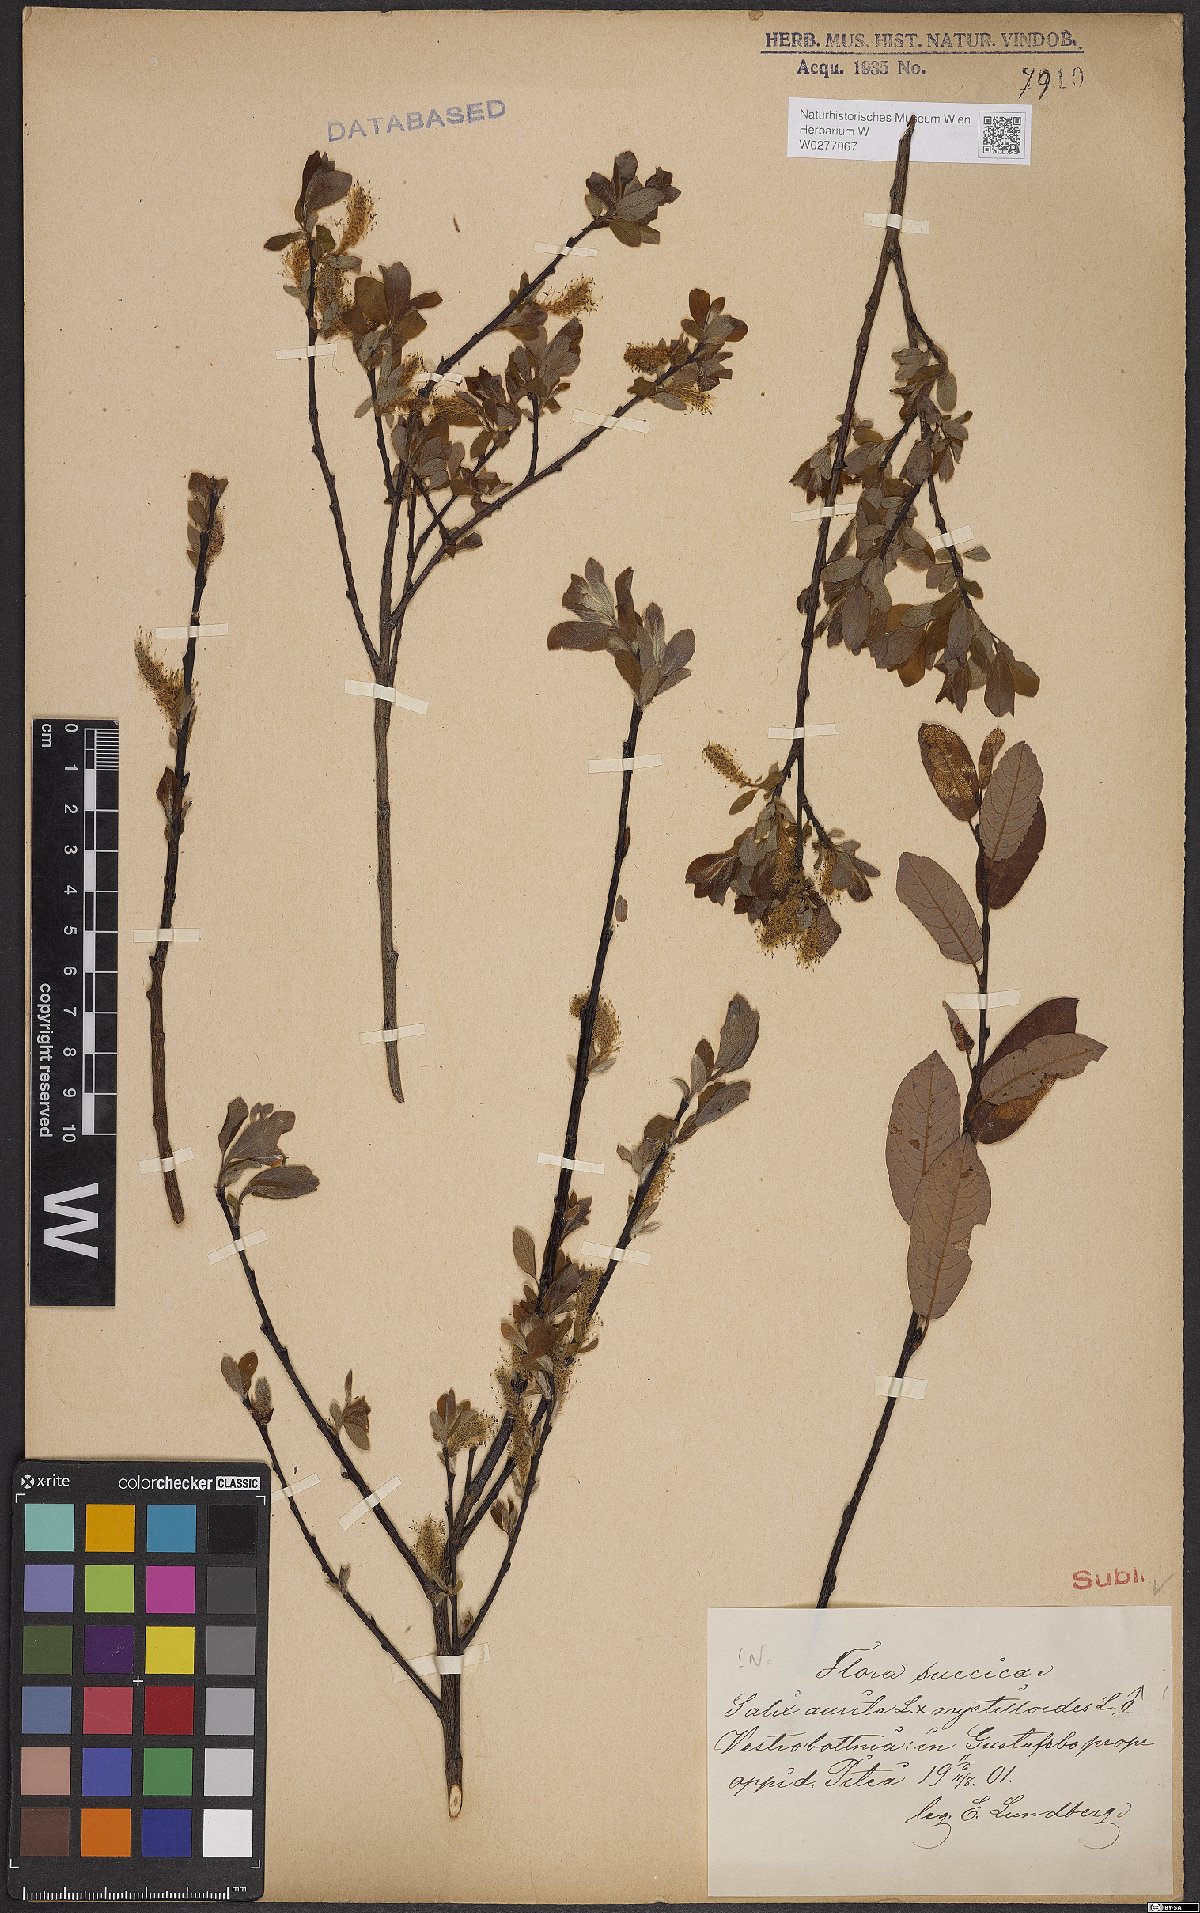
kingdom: Plantae
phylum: Tracheophyta
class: Magnoliopsida
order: Malpighiales
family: Salicaceae
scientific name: Salicaceae
